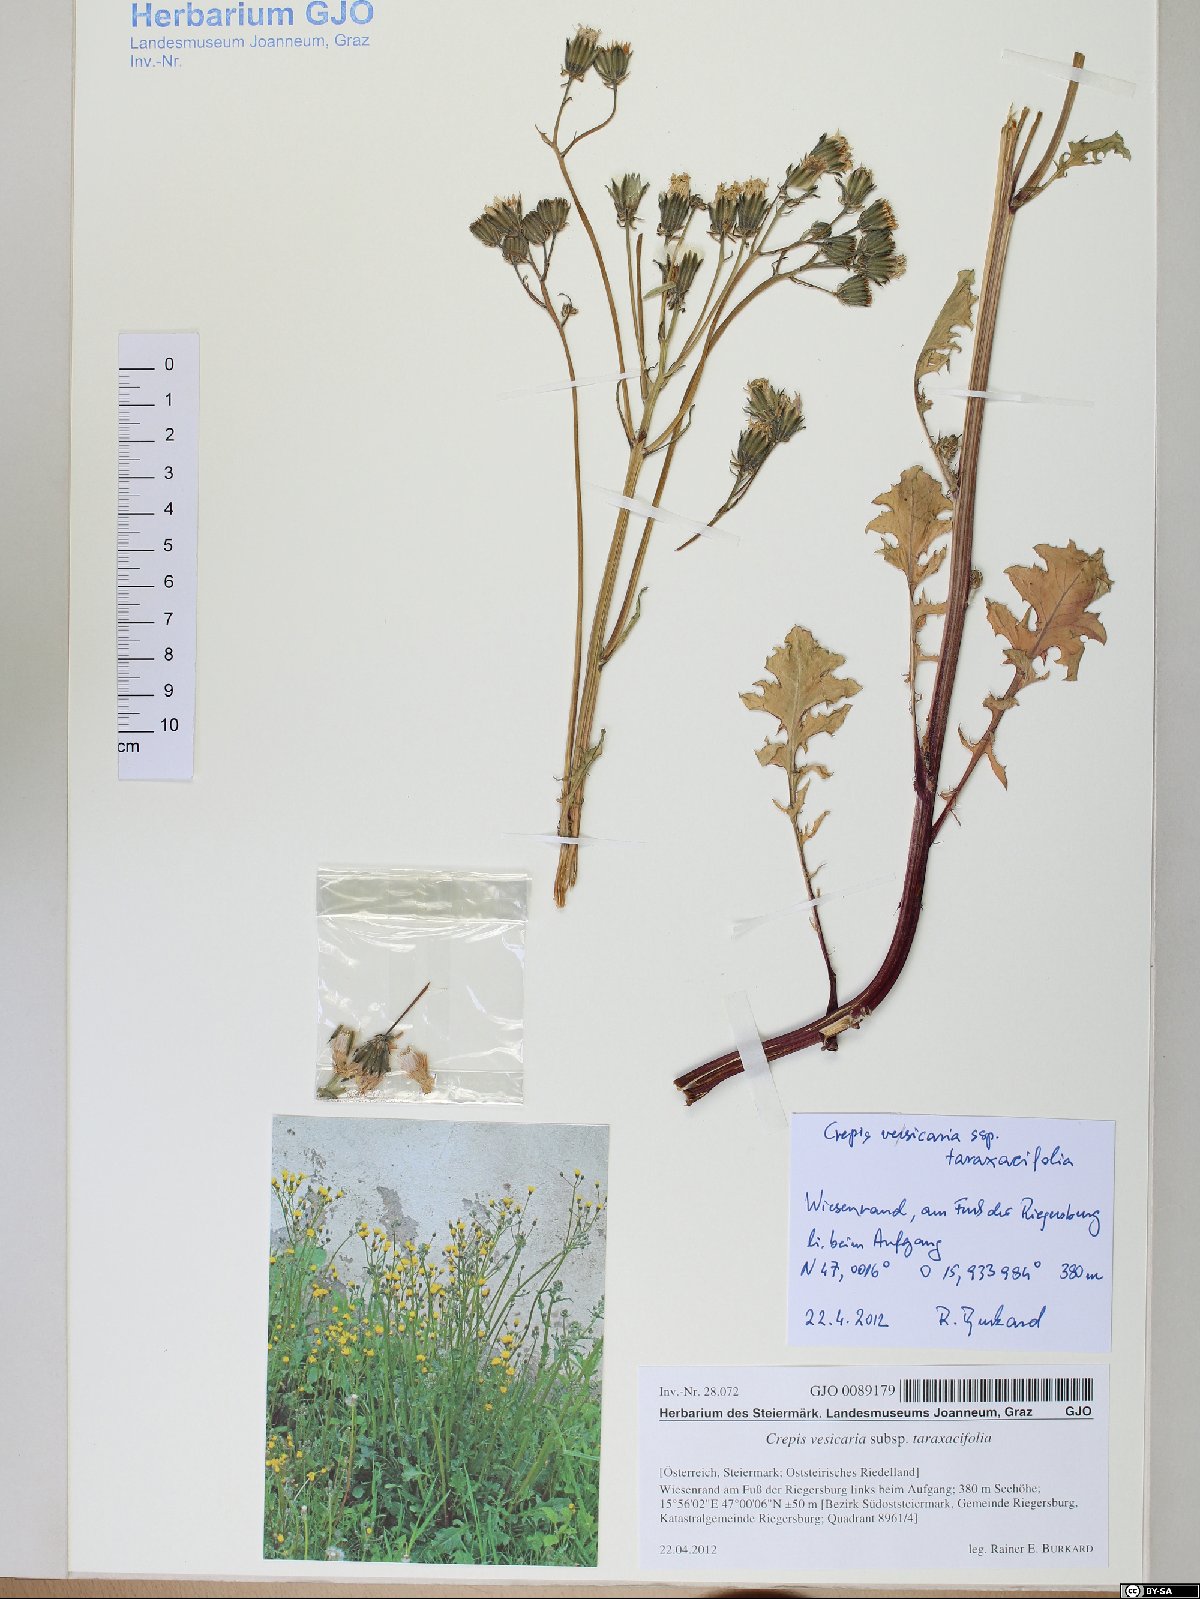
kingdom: Plantae
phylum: Tracheophyta
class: Magnoliopsida
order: Asterales
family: Asteraceae
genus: Crepis
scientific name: Crepis vesicaria
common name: Beaked hawksbeard
